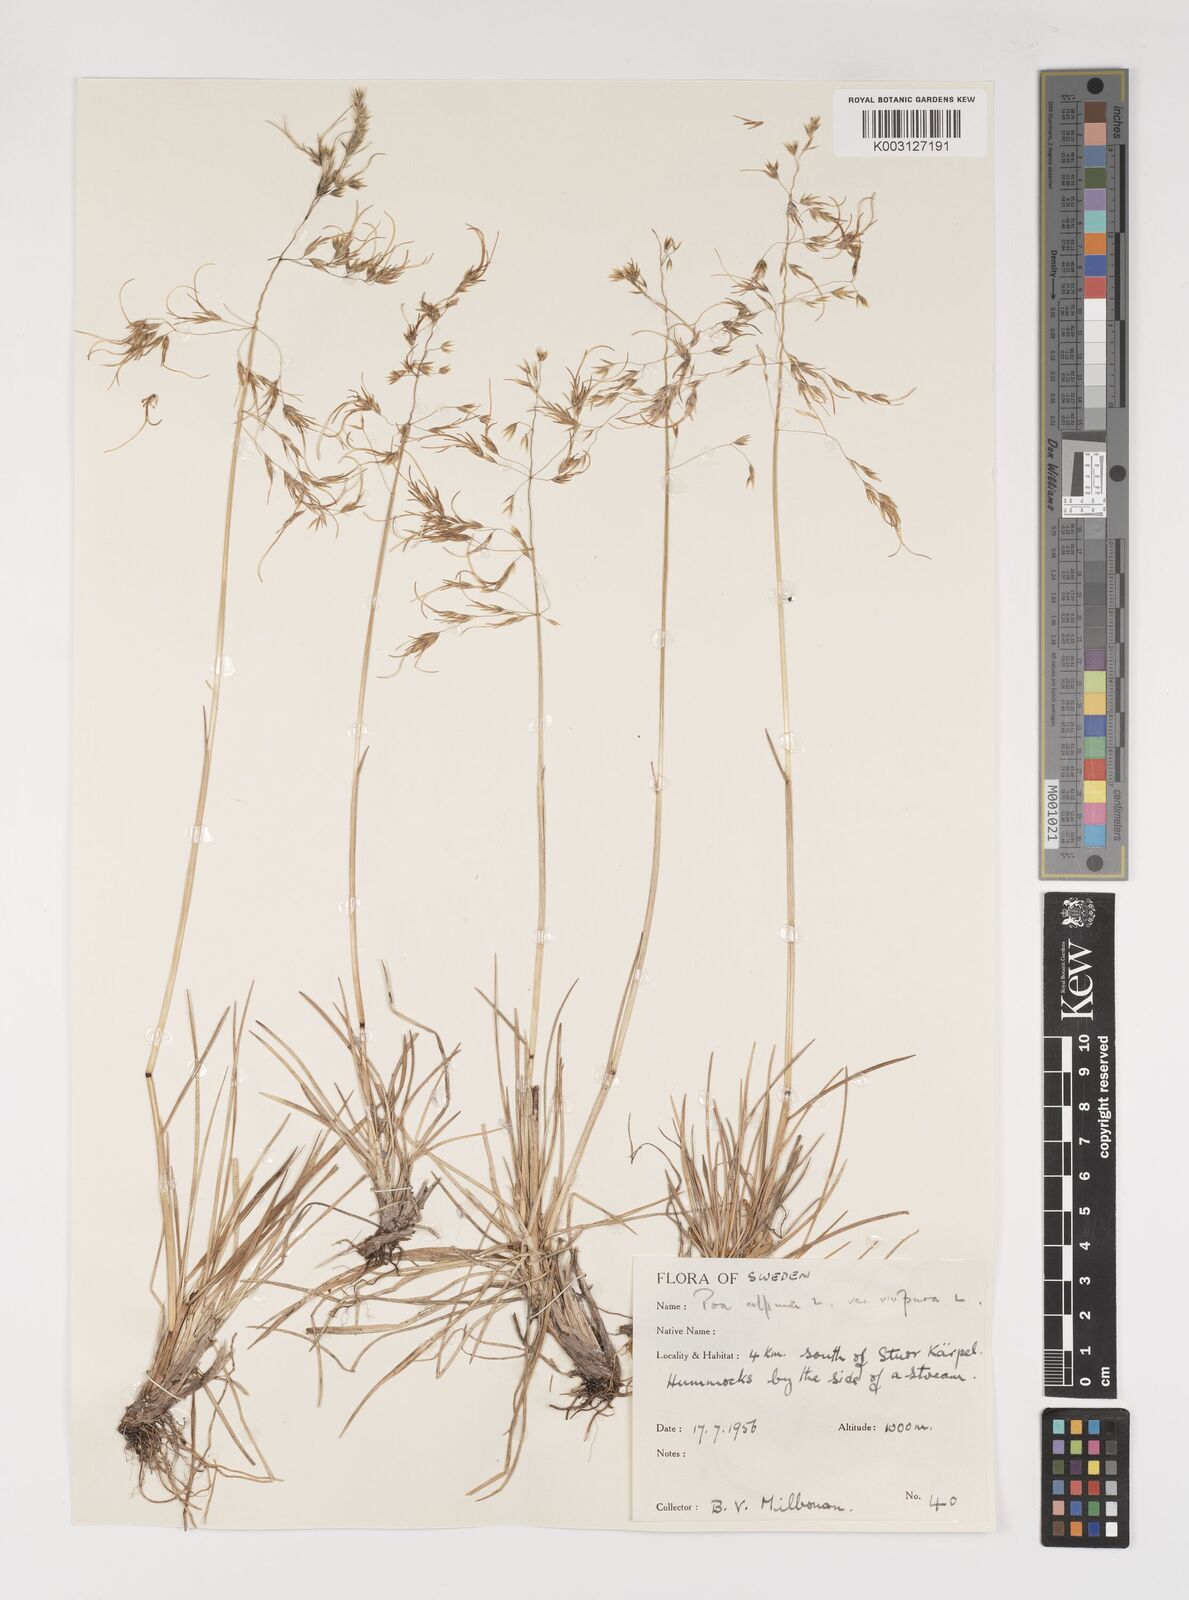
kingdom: Plantae
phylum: Tracheophyta
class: Liliopsida
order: Poales
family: Poaceae
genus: Poa
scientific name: Poa alpina
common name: Alpine bluegrass
